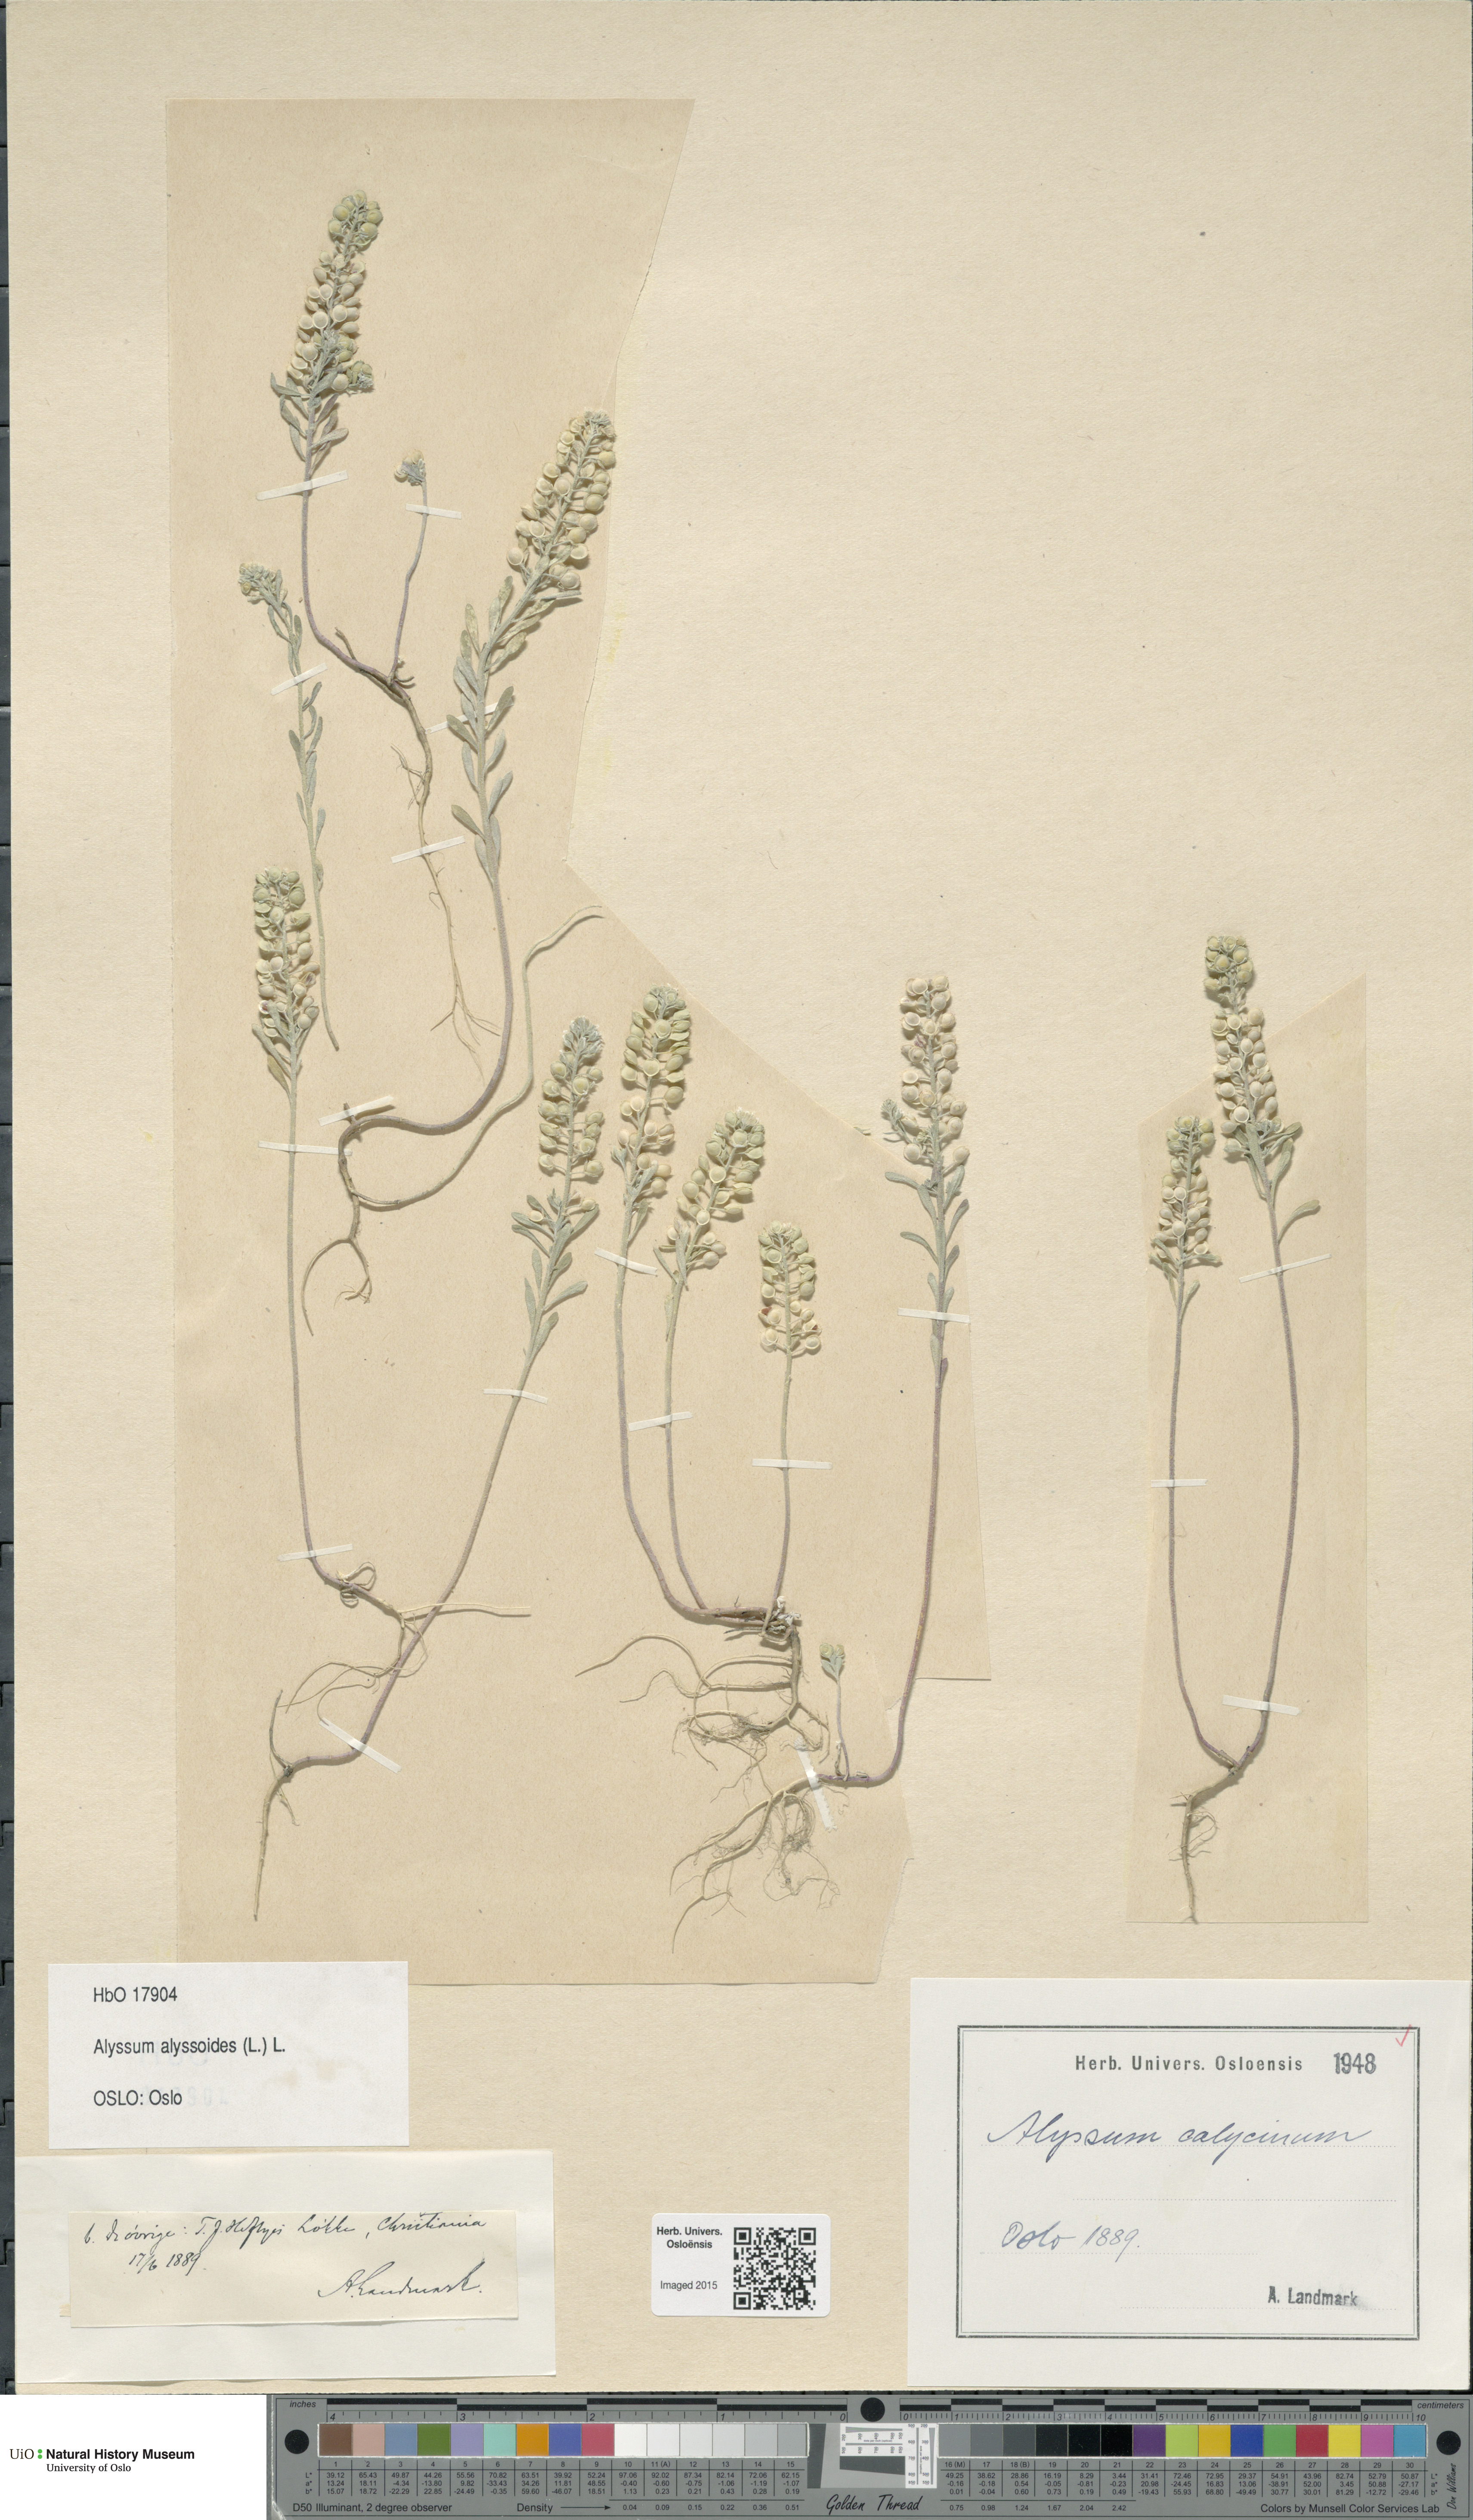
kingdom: Plantae
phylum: Tracheophyta
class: Magnoliopsida
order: Brassicales
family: Brassicaceae
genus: Alyssum
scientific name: Alyssum alyssoides
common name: Small alison
